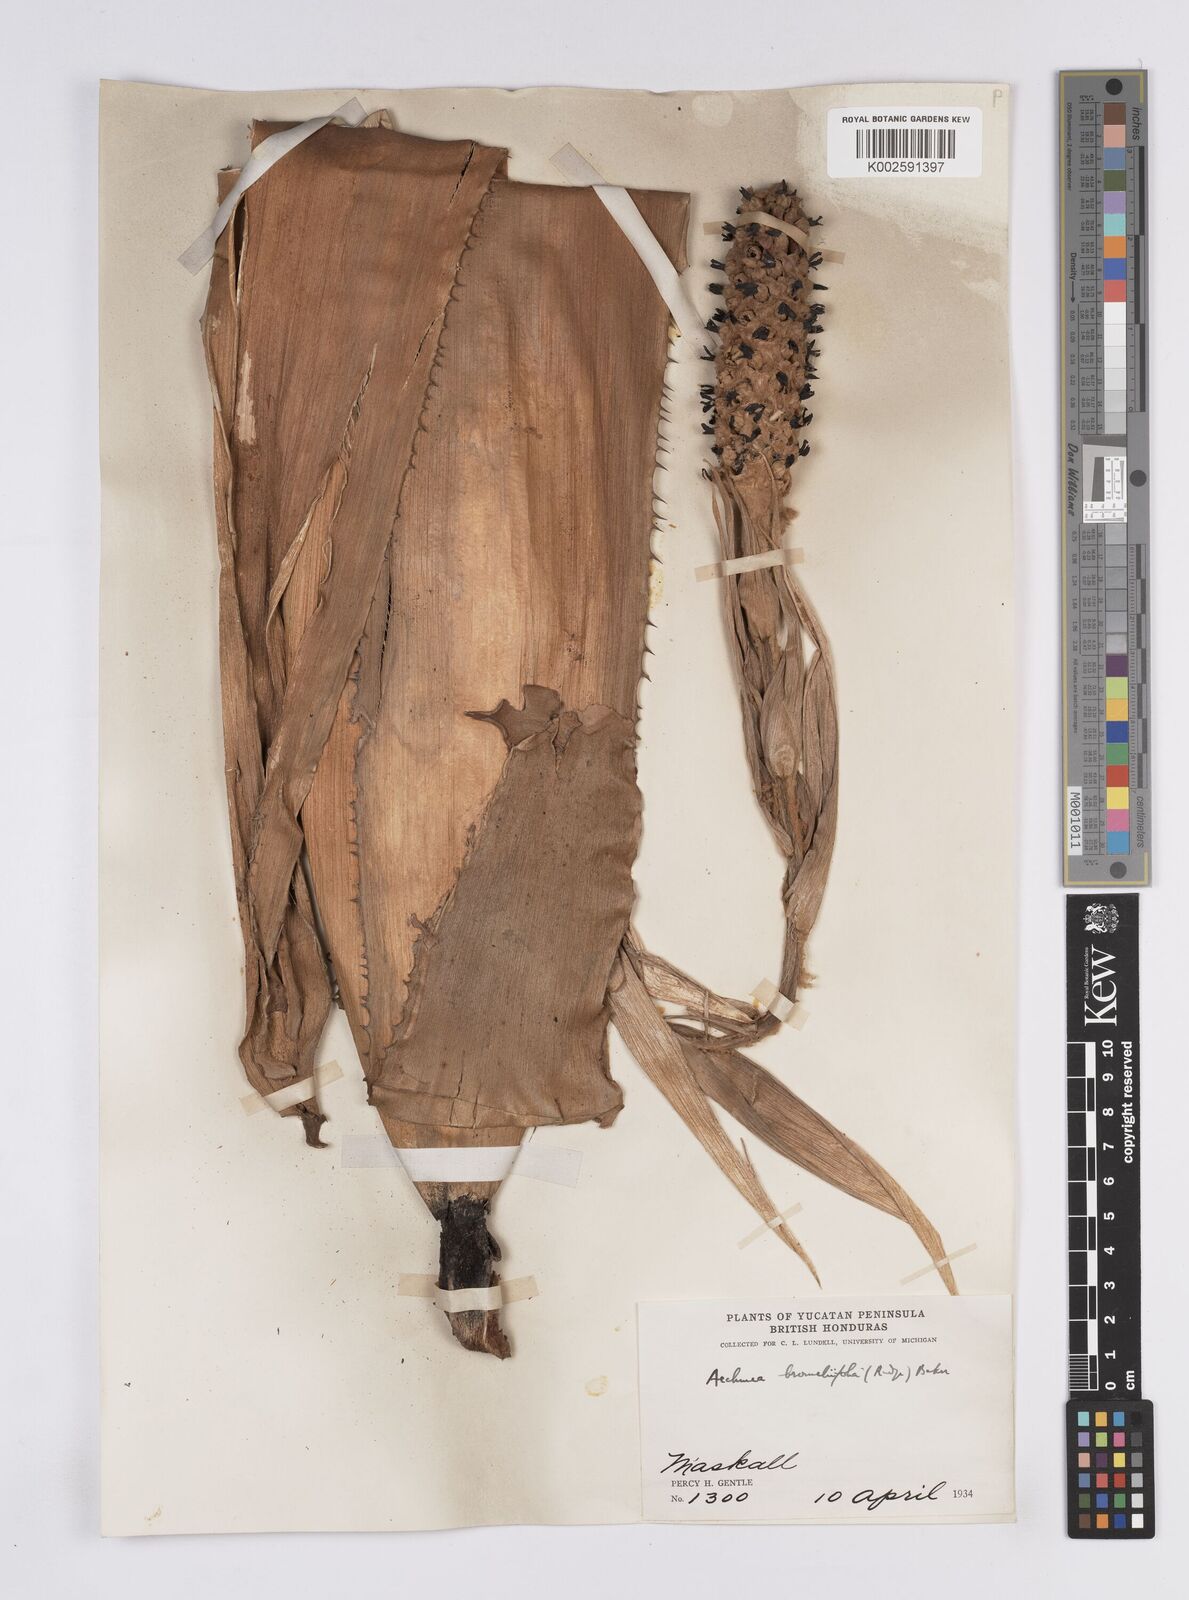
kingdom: Plantae
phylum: Tracheophyta
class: Liliopsida
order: Poales
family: Bromeliaceae
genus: Aechmea
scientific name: Aechmea bromeliifolia
